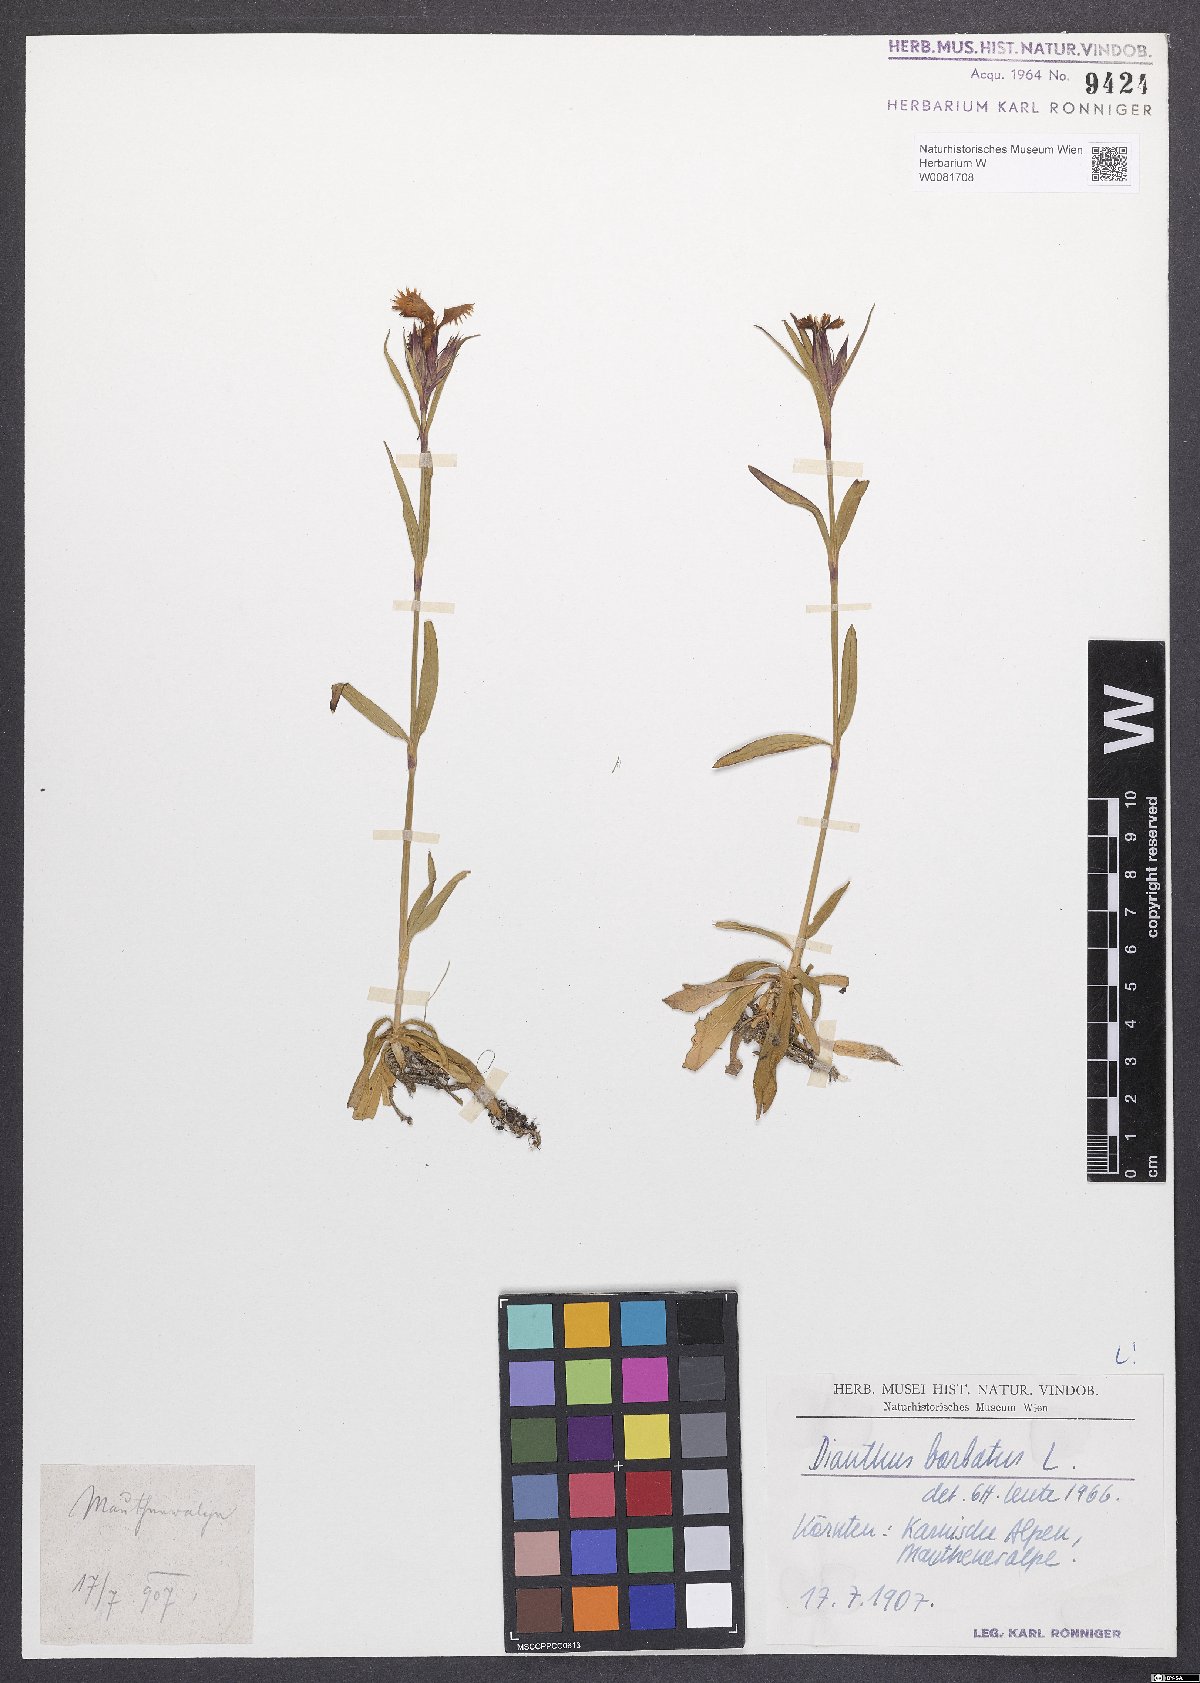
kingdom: Plantae
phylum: Tracheophyta
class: Magnoliopsida
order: Caryophyllales
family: Caryophyllaceae
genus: Dianthus
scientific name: Dianthus barbatus
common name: Sweet-william
